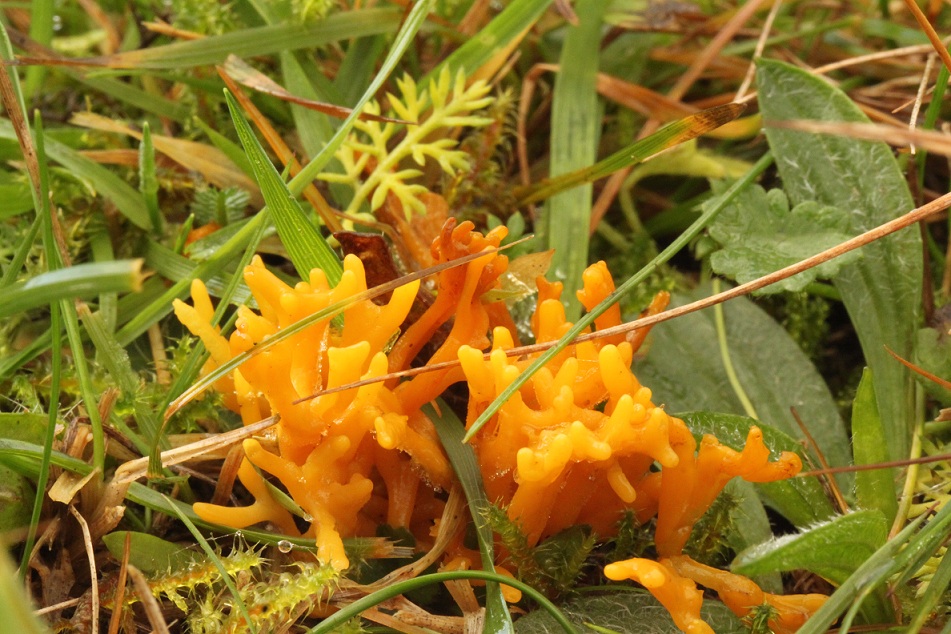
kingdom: Fungi
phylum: Basidiomycota
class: Agaricomycetes
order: Agaricales
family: Clavariaceae
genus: Clavulinopsis
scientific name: Clavulinopsis corniculata
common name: eng-køllesvamp
